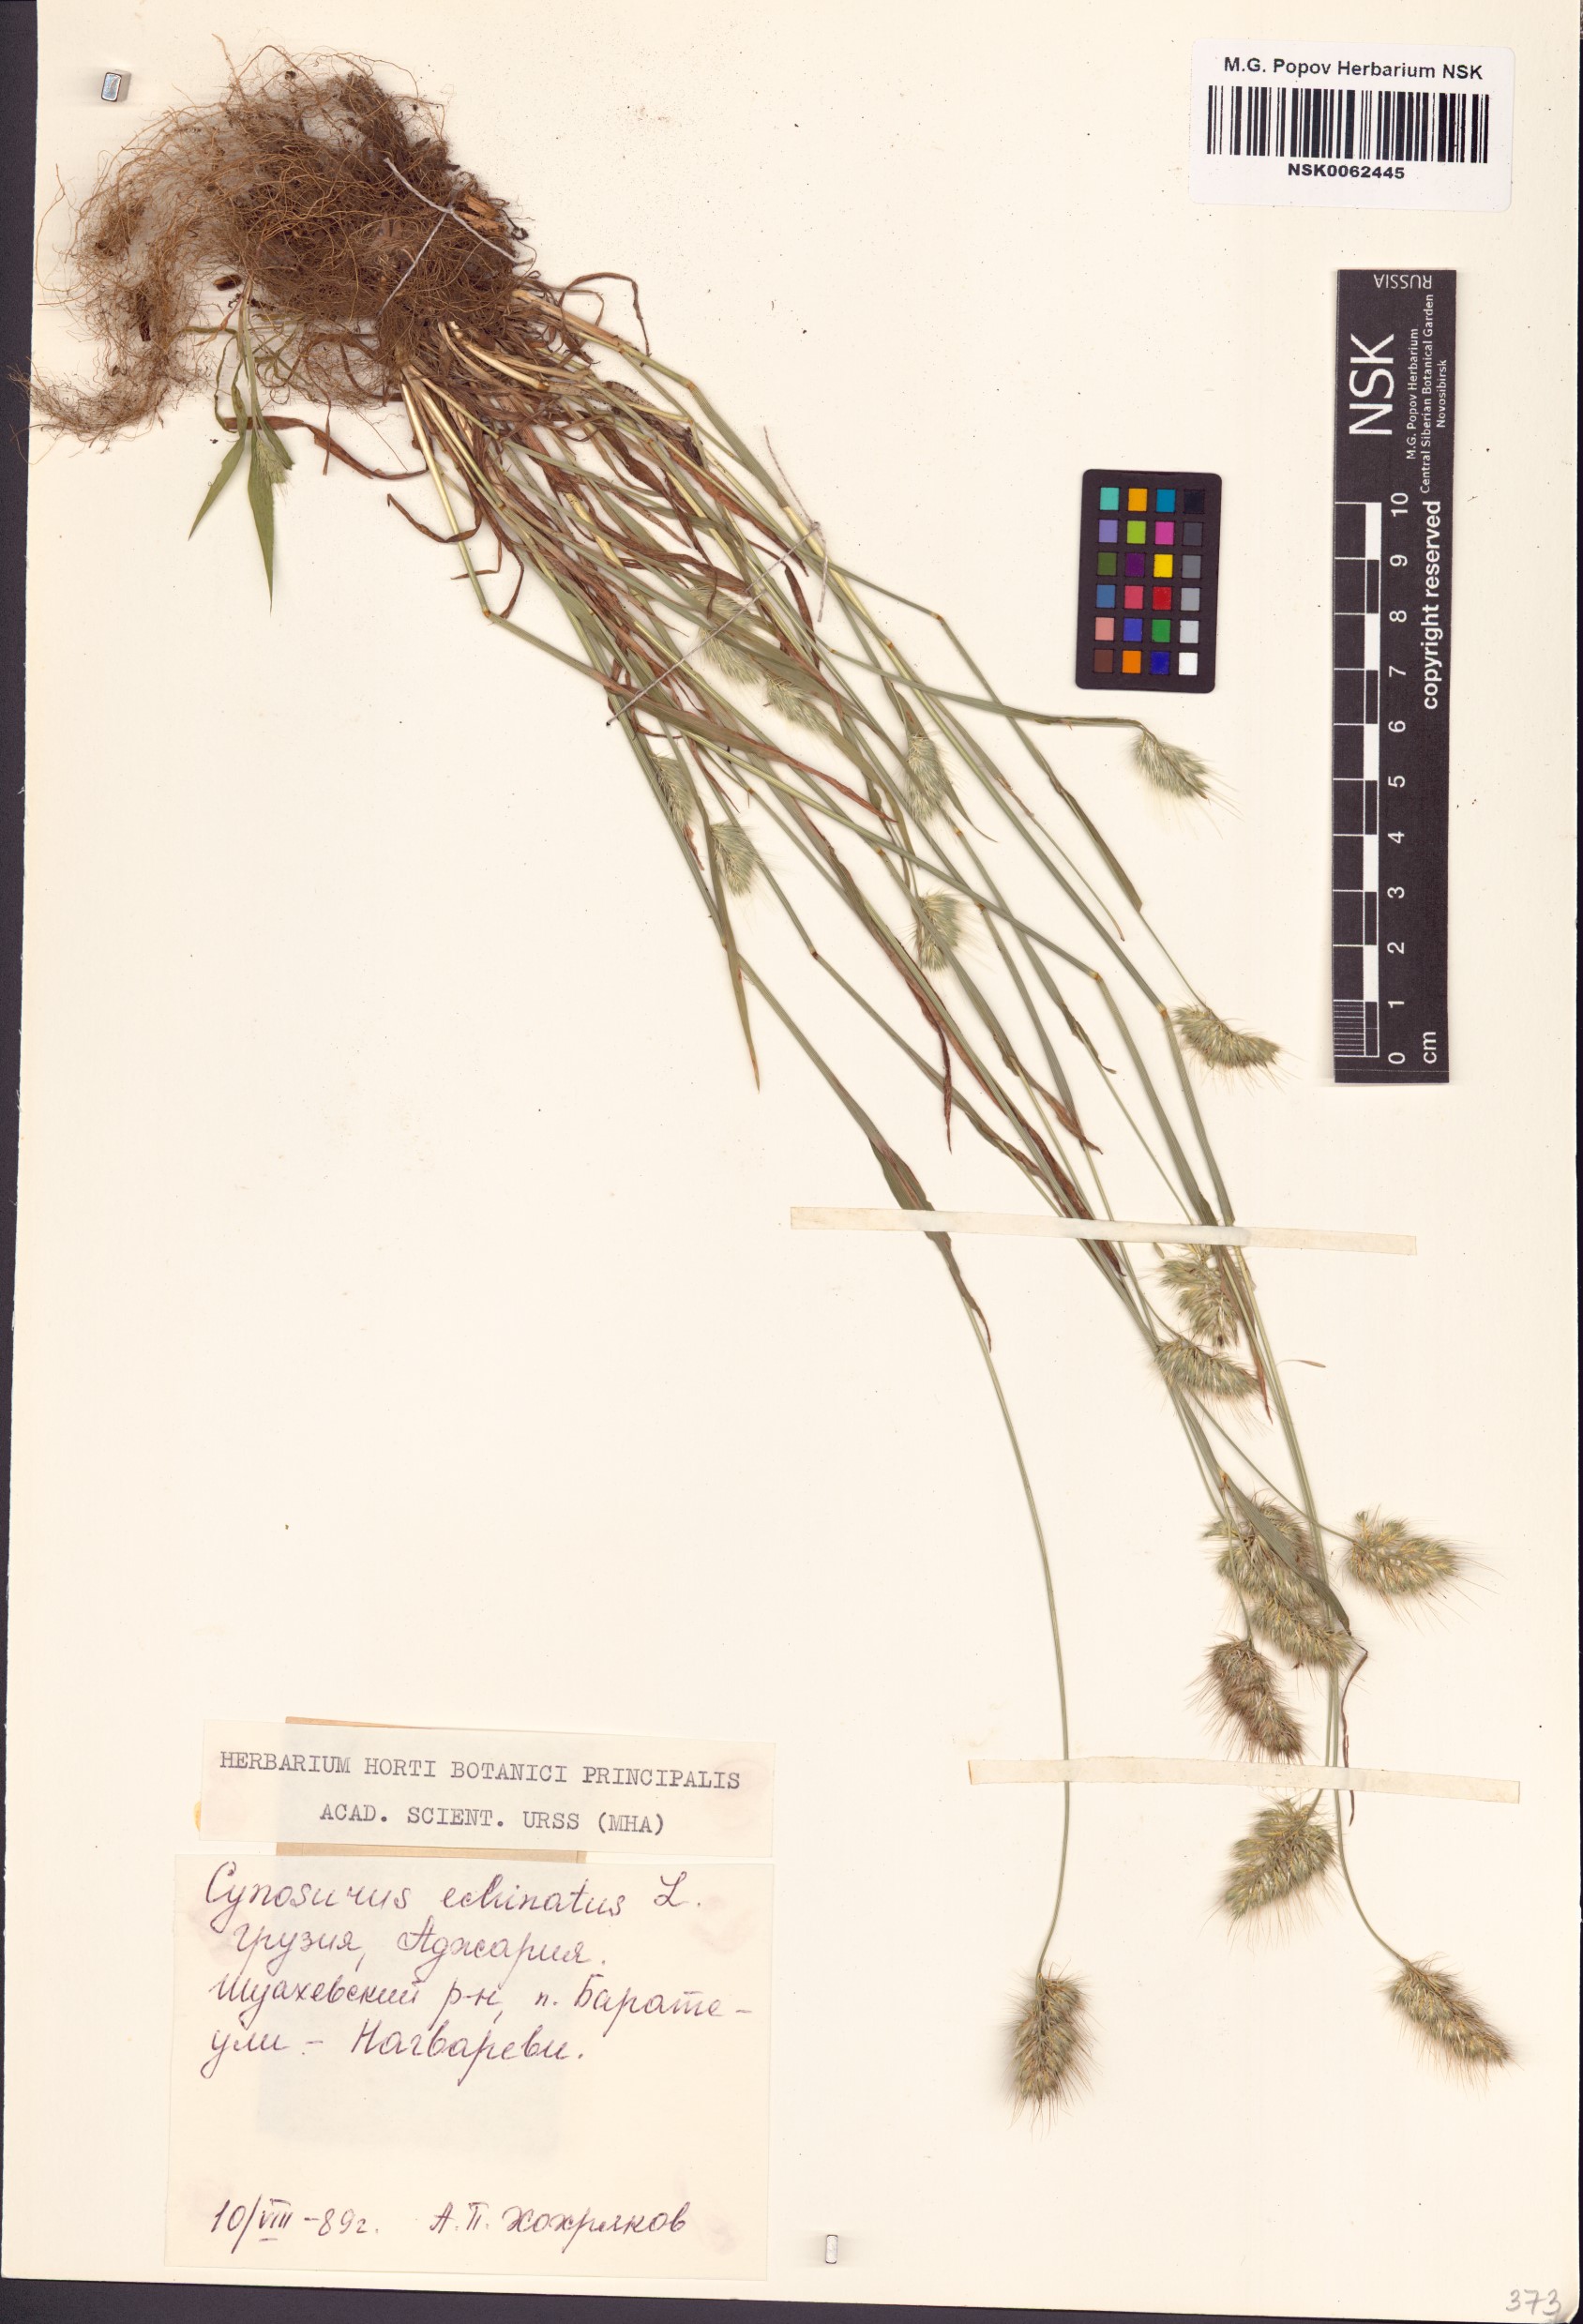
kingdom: Plantae
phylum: Tracheophyta
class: Liliopsida
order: Poales
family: Poaceae
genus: Cynosurus
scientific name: Cynosurus echinatus
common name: Rough dog's-tail
